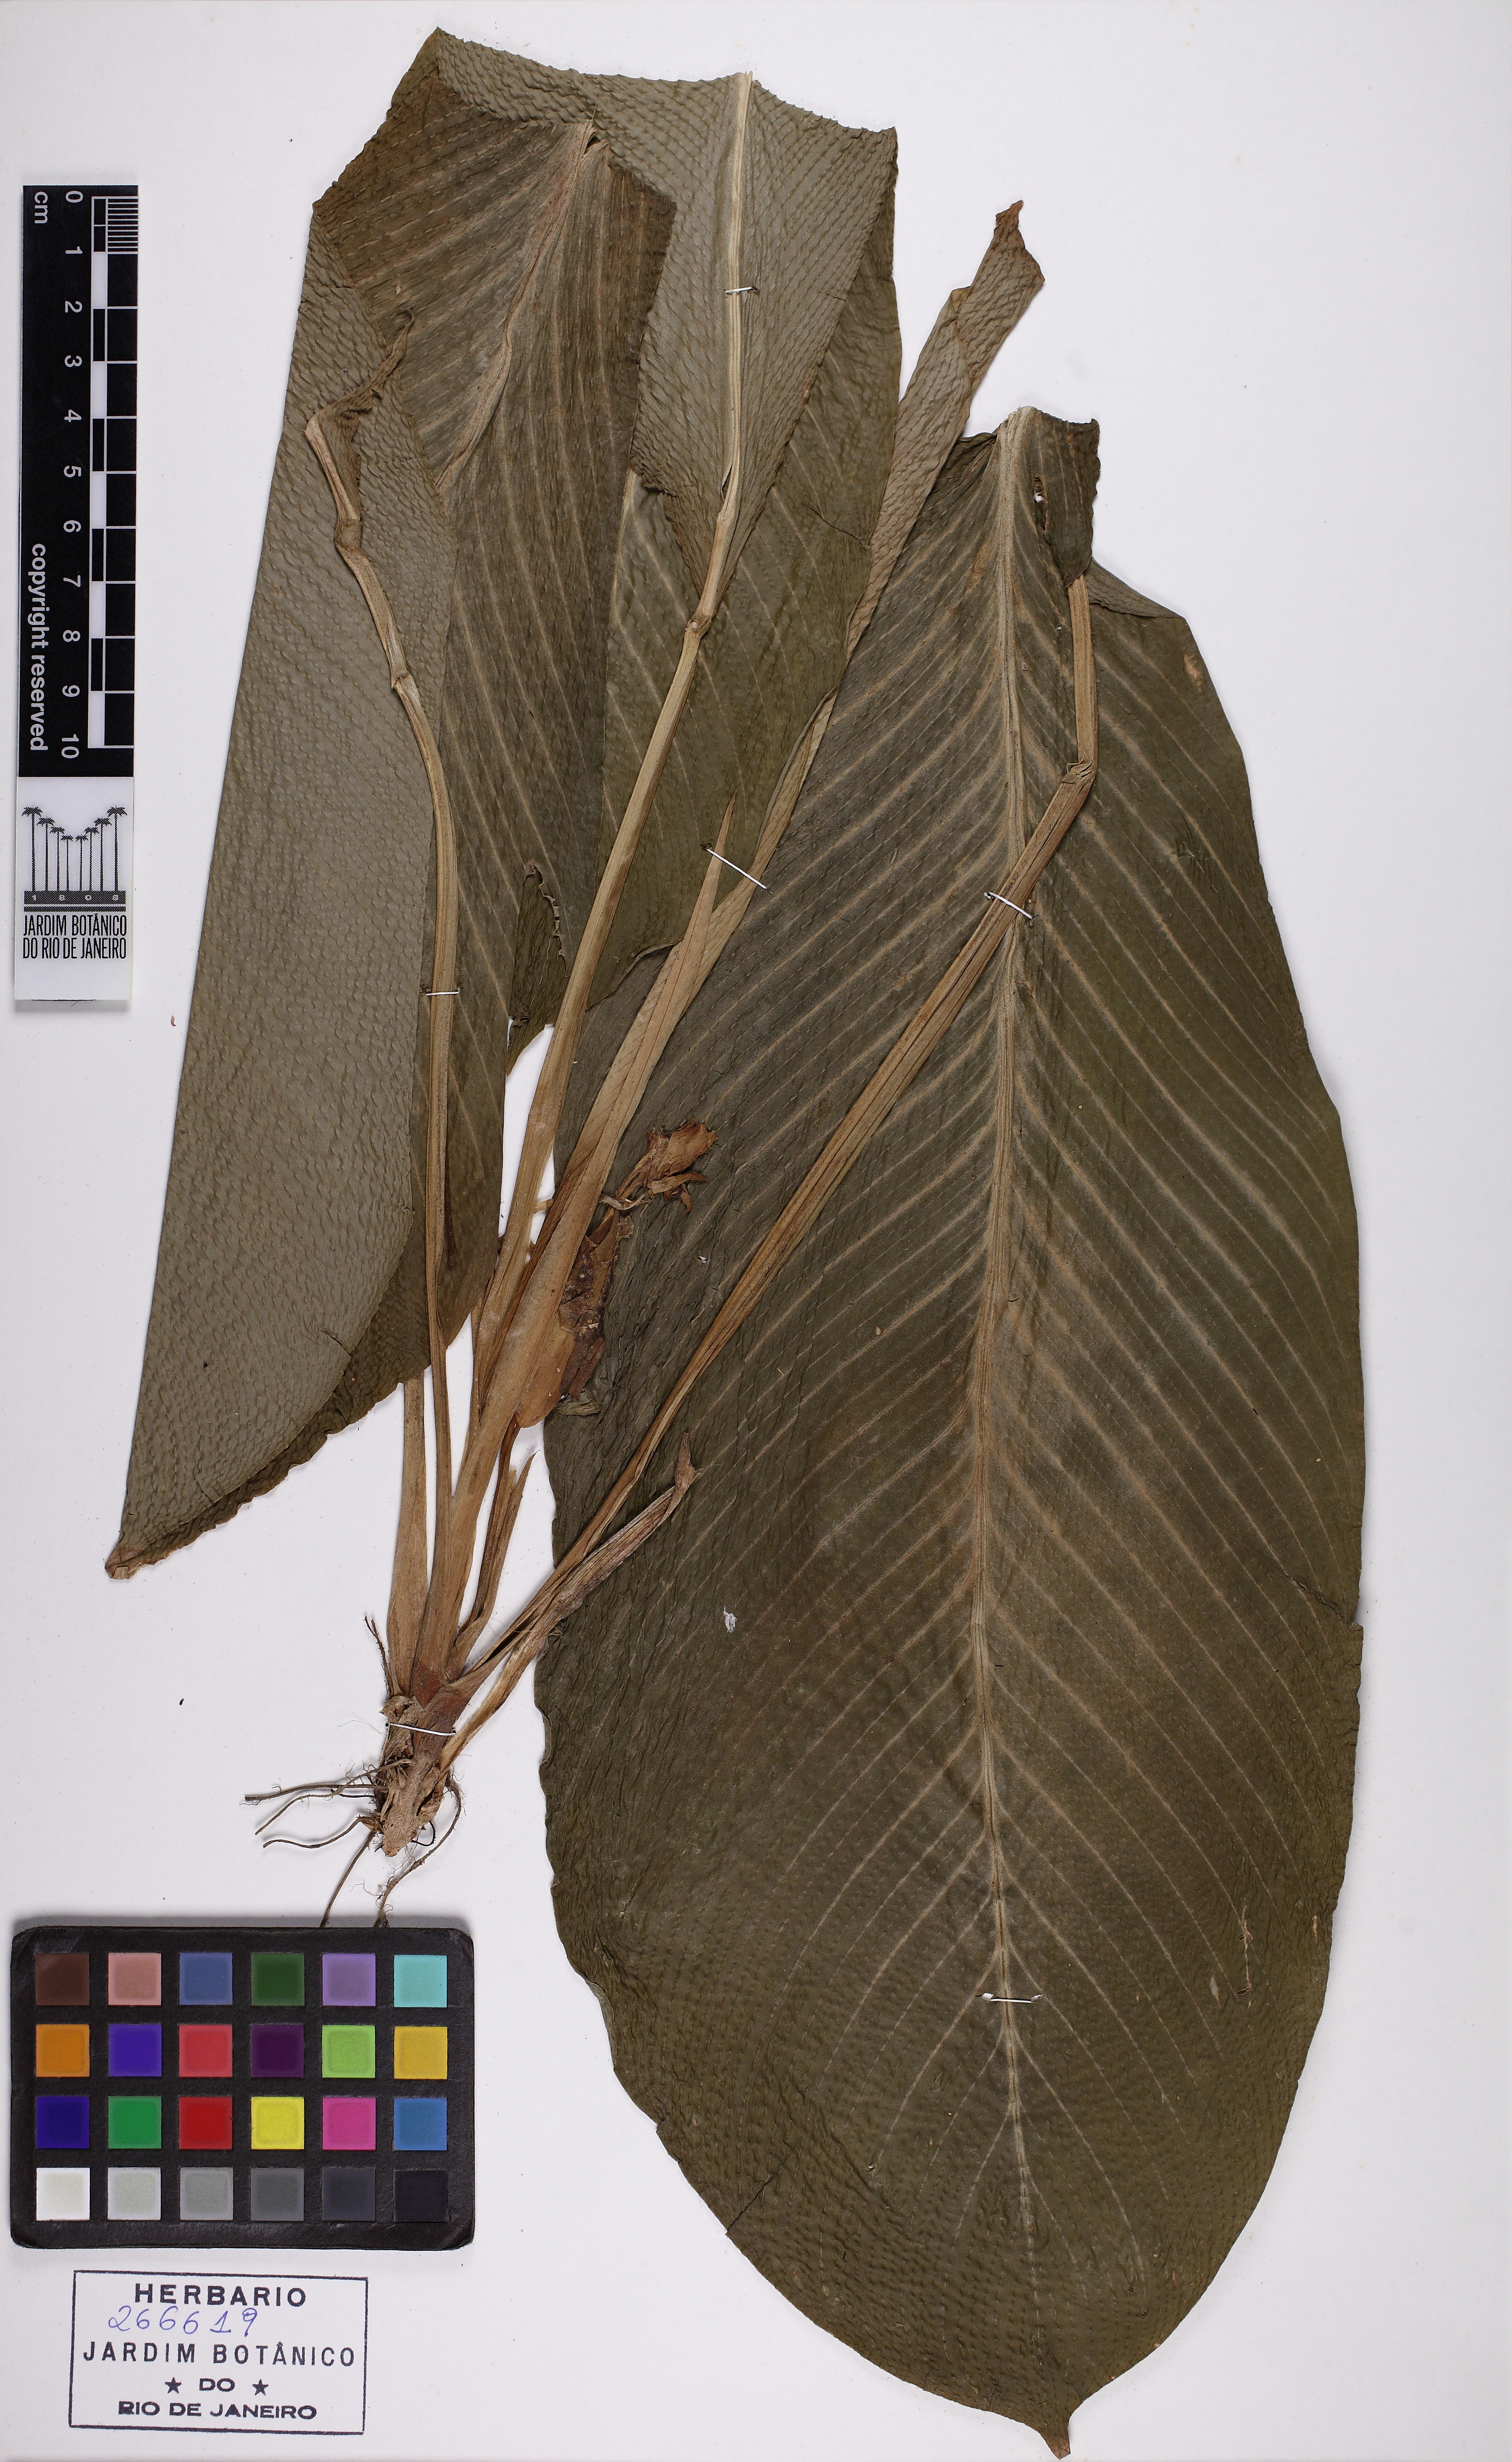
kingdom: Plantae
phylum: Tracheophyta
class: Liliopsida
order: Zingiberales
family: Marantaceae
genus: Calathea
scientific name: Calathea
